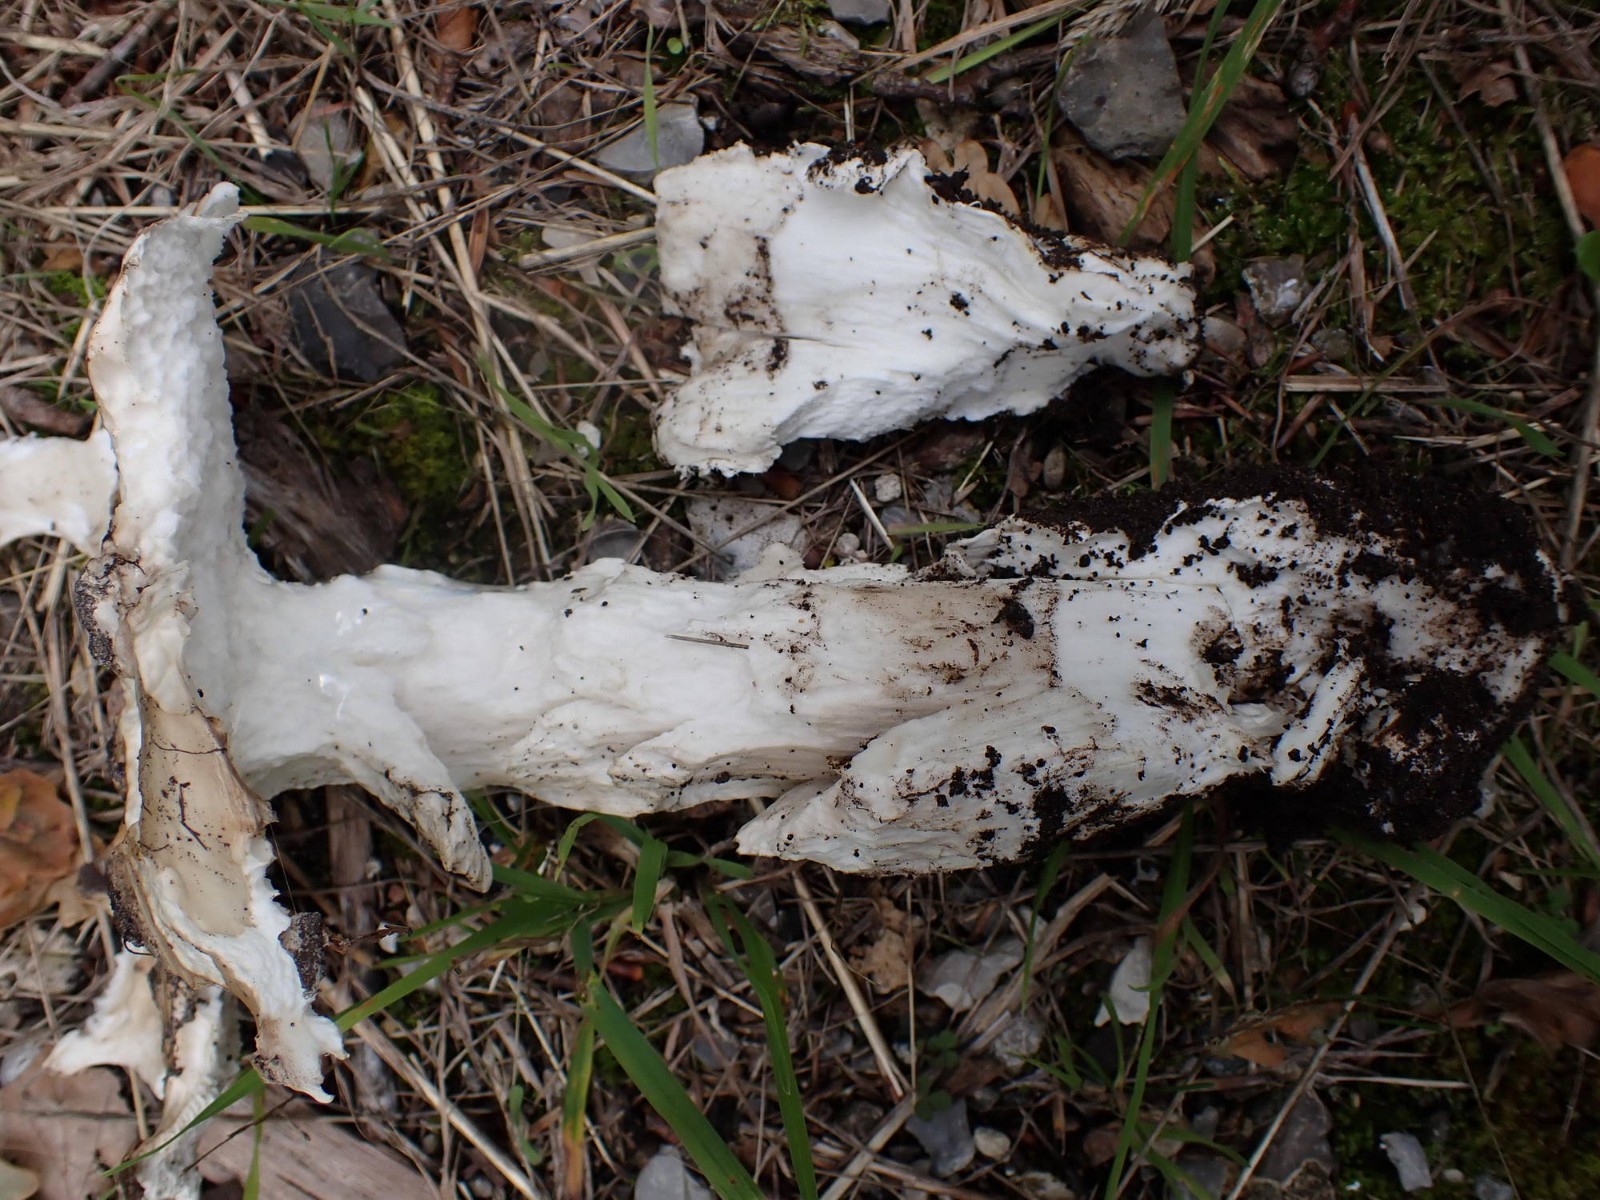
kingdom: Fungi
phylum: Basidiomycota
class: Agaricomycetes
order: Agaricales
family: Amanitaceae
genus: Amanita
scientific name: Amanita
